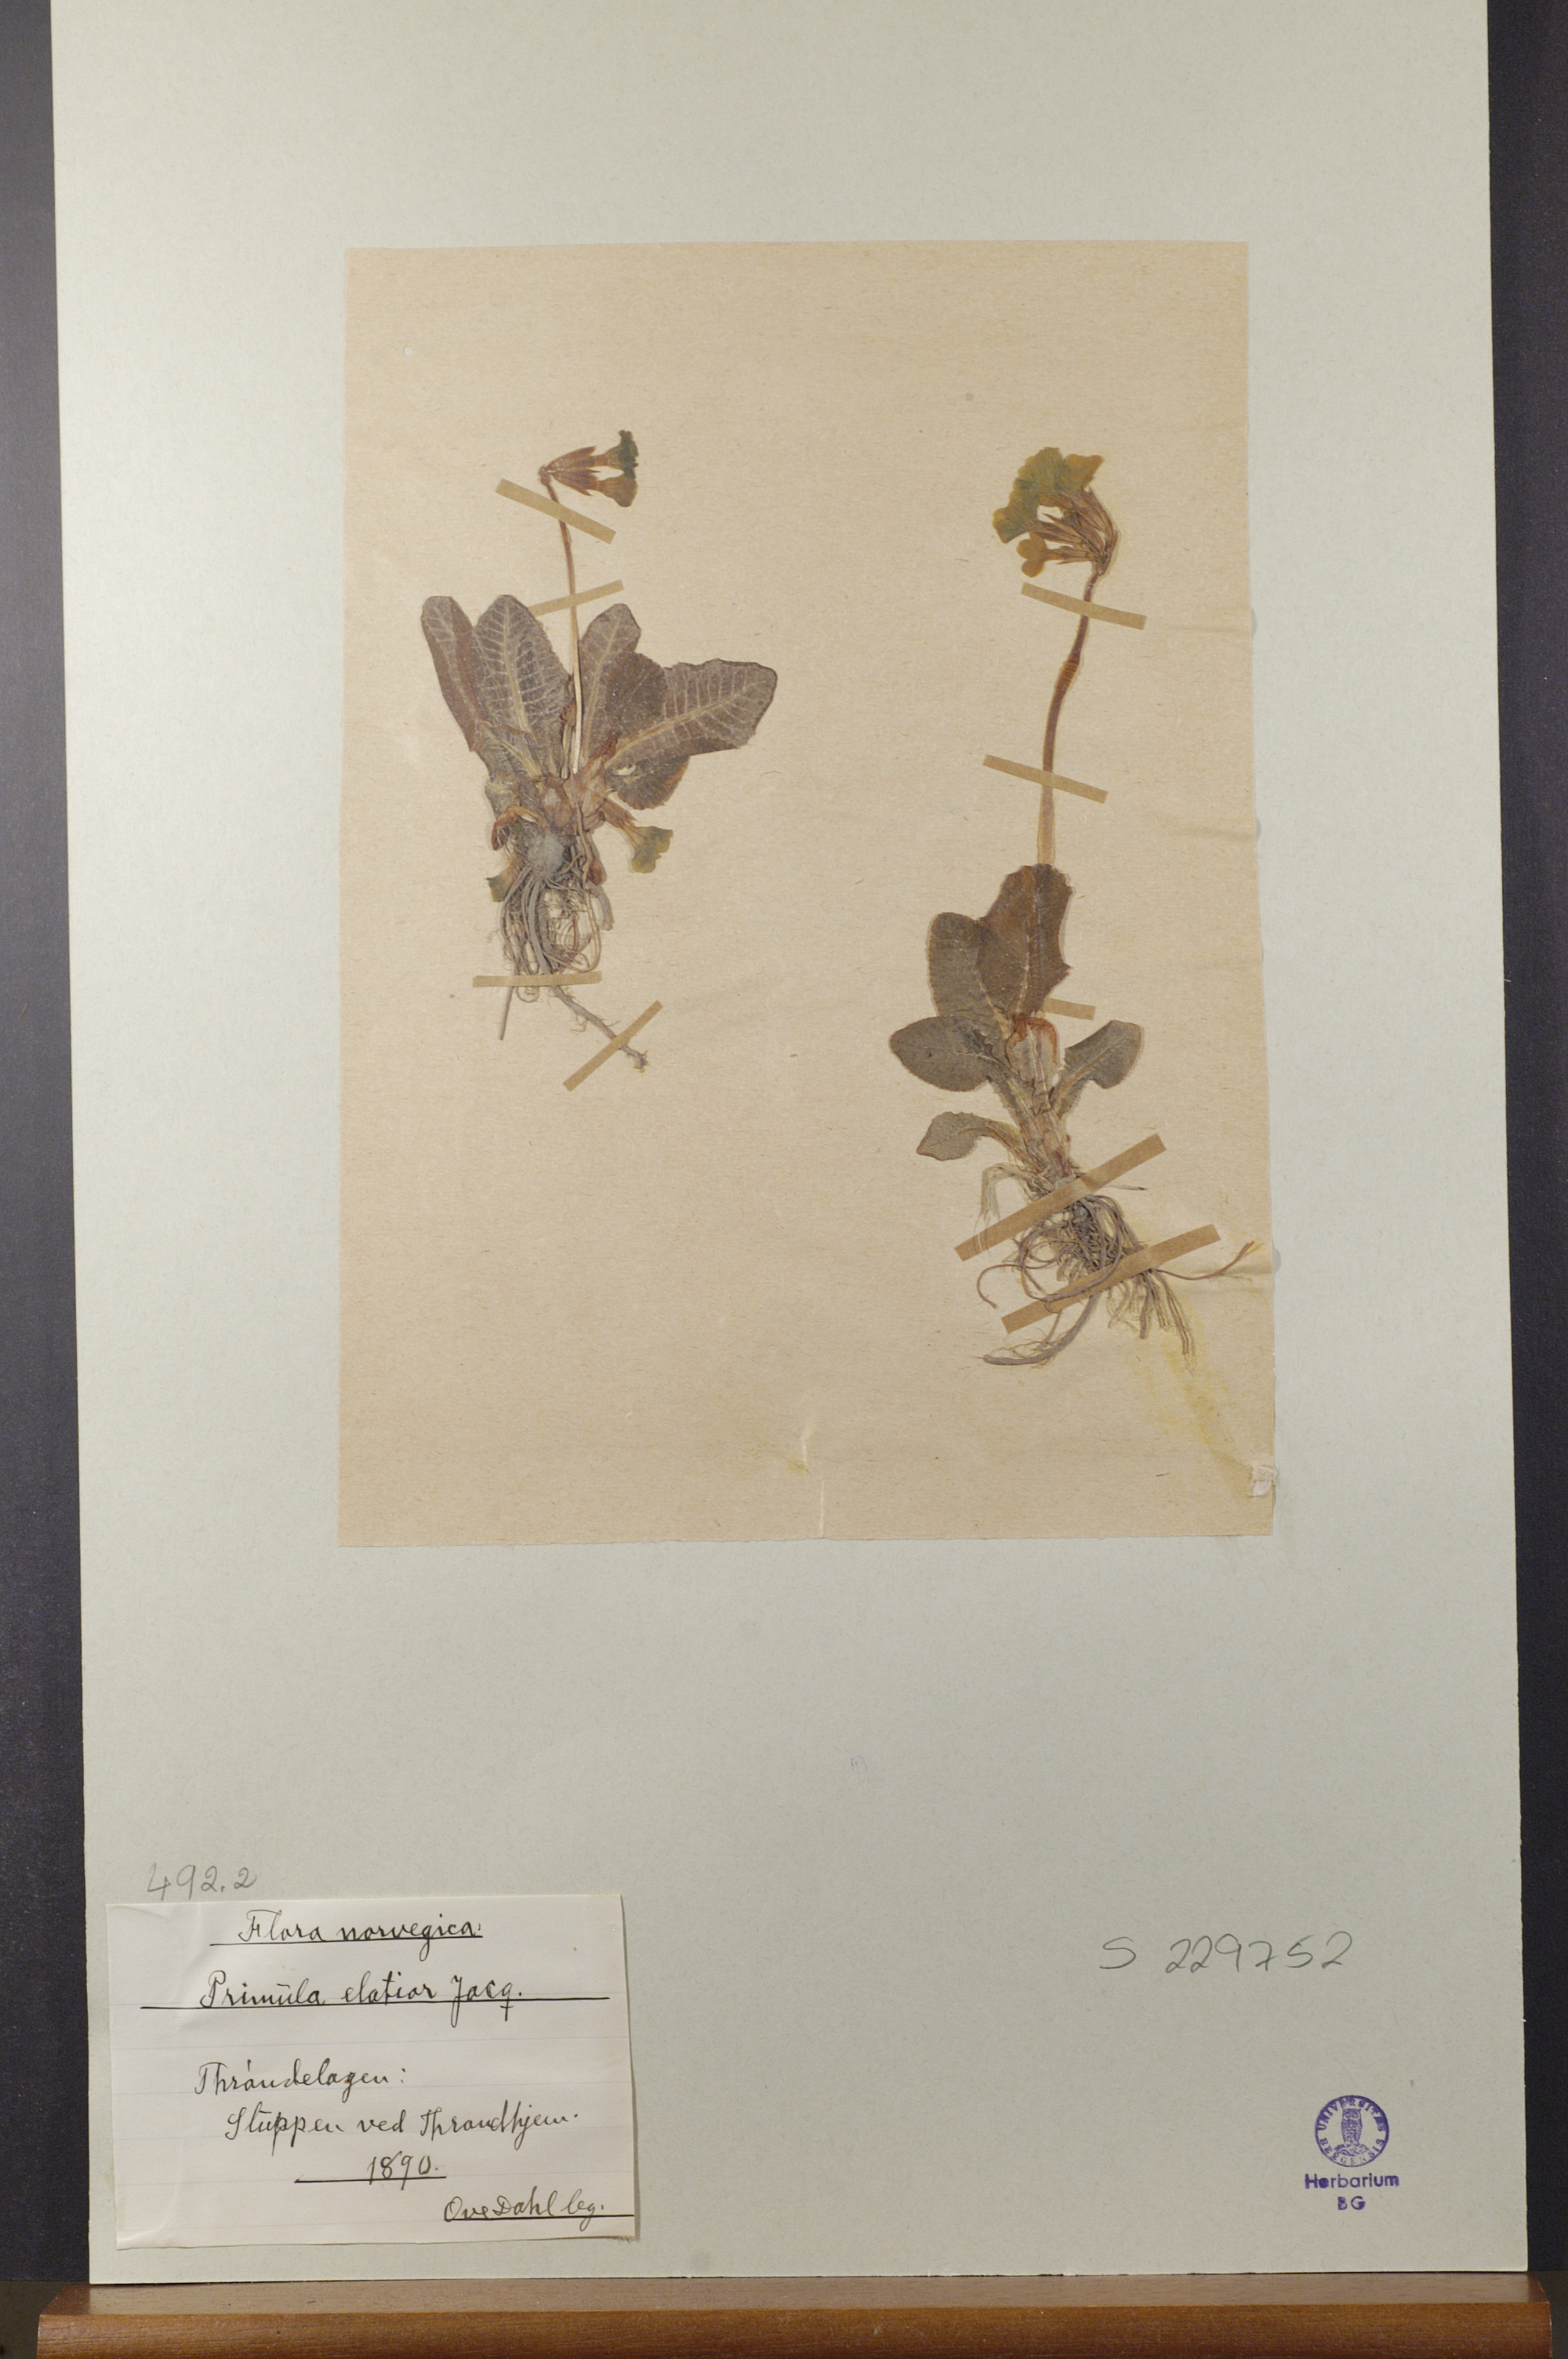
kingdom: Plantae
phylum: Tracheophyta
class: Magnoliopsida
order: Ericales
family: Primulaceae
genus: Primula
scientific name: Primula elatior
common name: Oxlip
